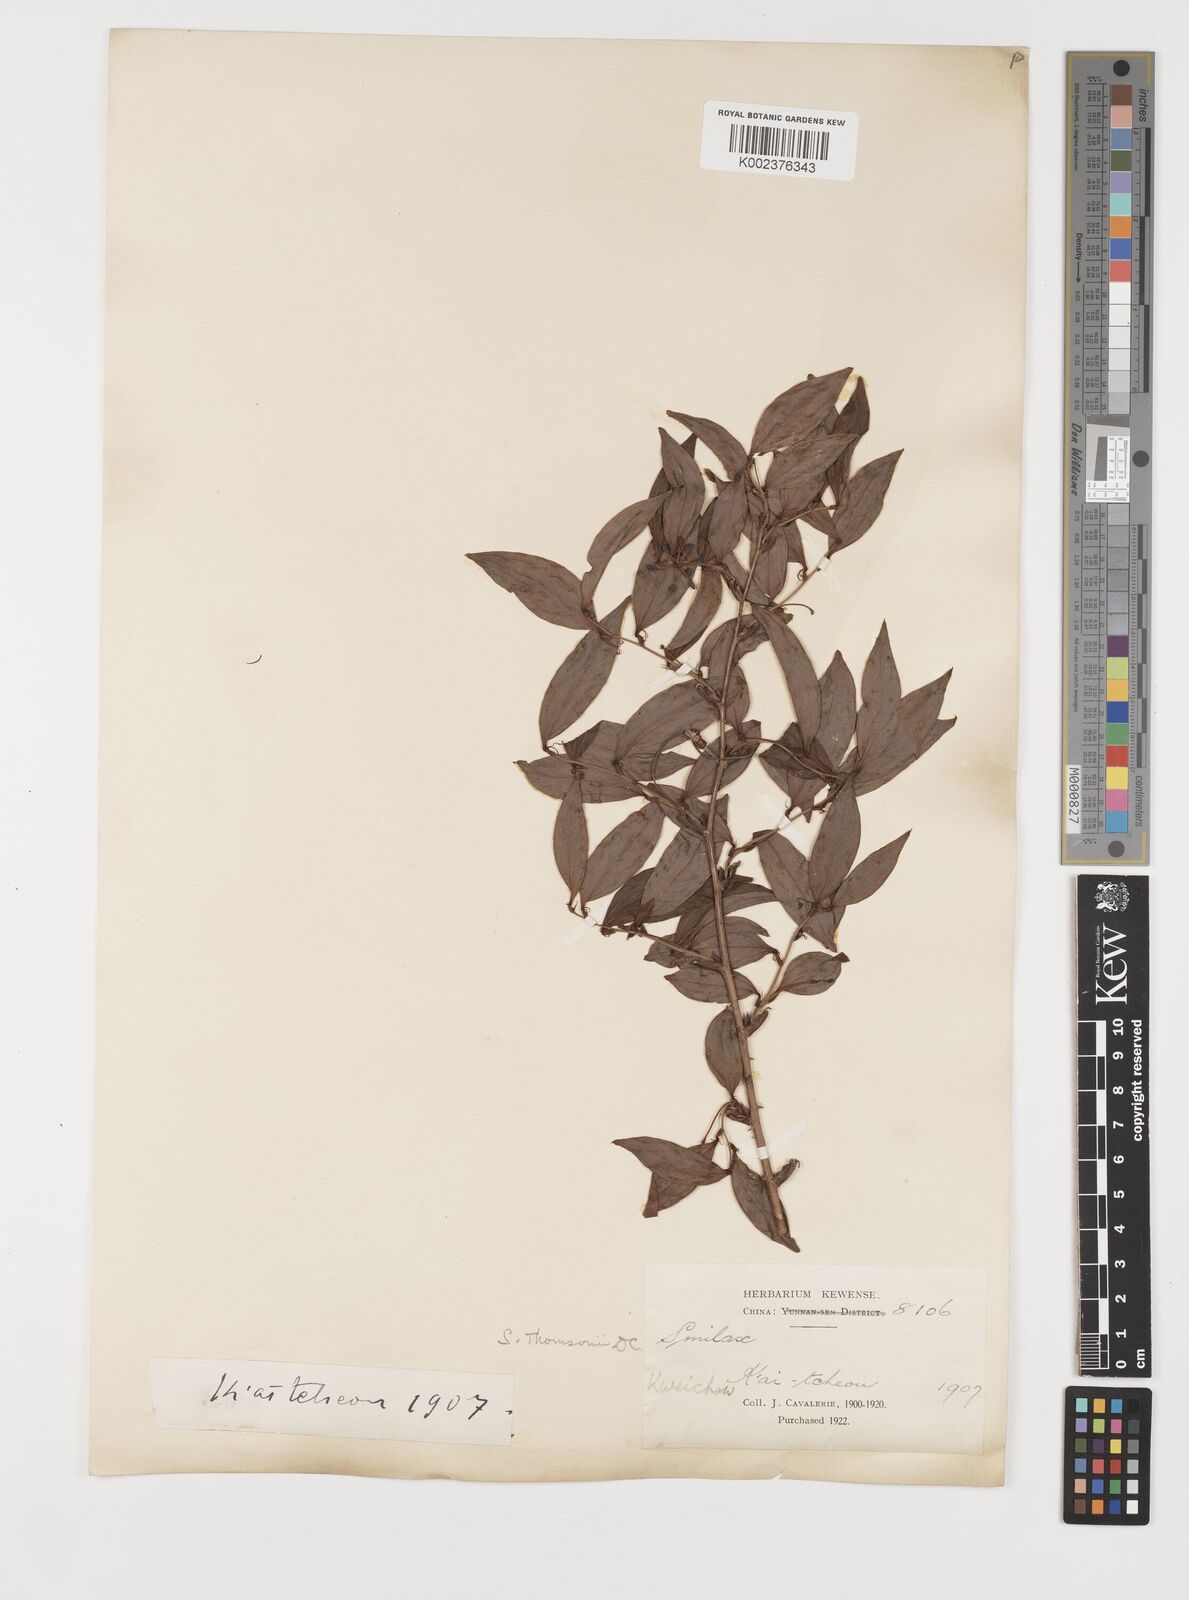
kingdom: Plantae
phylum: Tracheophyta
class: Liliopsida
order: Liliales
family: Smilacaceae
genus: Smilax
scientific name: Smilax china
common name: Chinaroot
